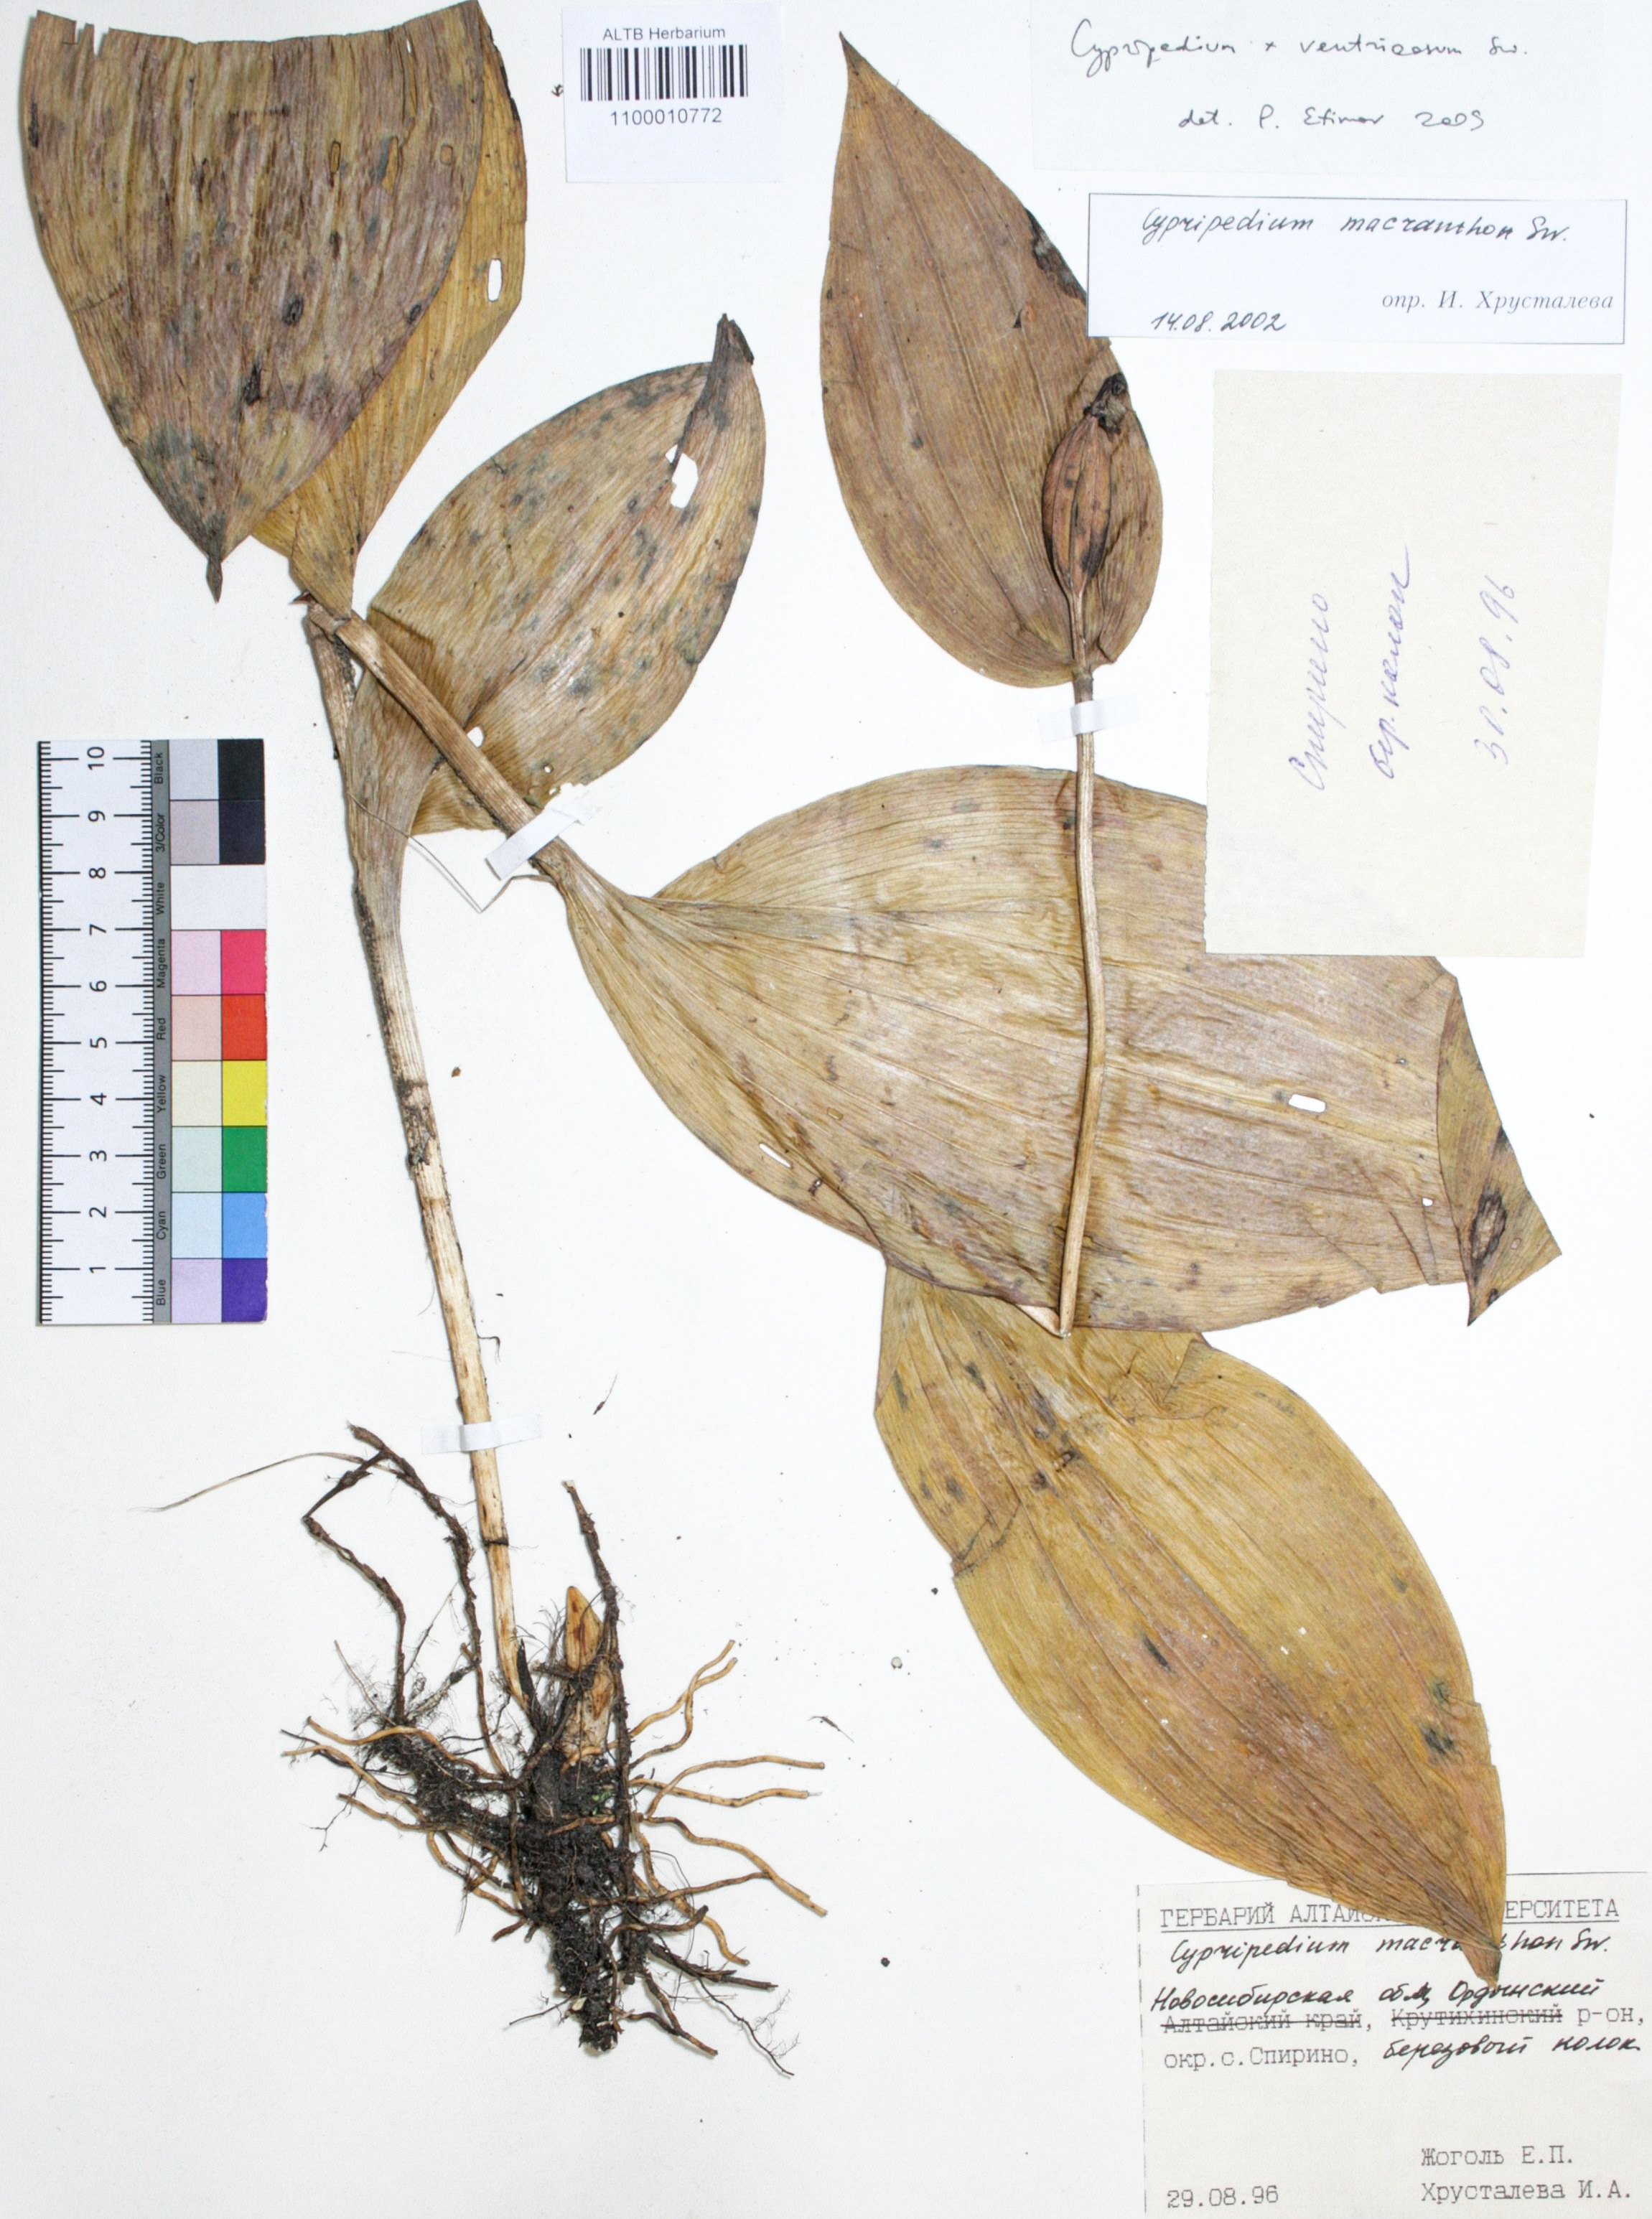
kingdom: Plantae
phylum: Tracheophyta
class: Liliopsida
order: Asparagales
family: Orchidaceae
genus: Cypripedium
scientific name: Cypripedium macranthon
